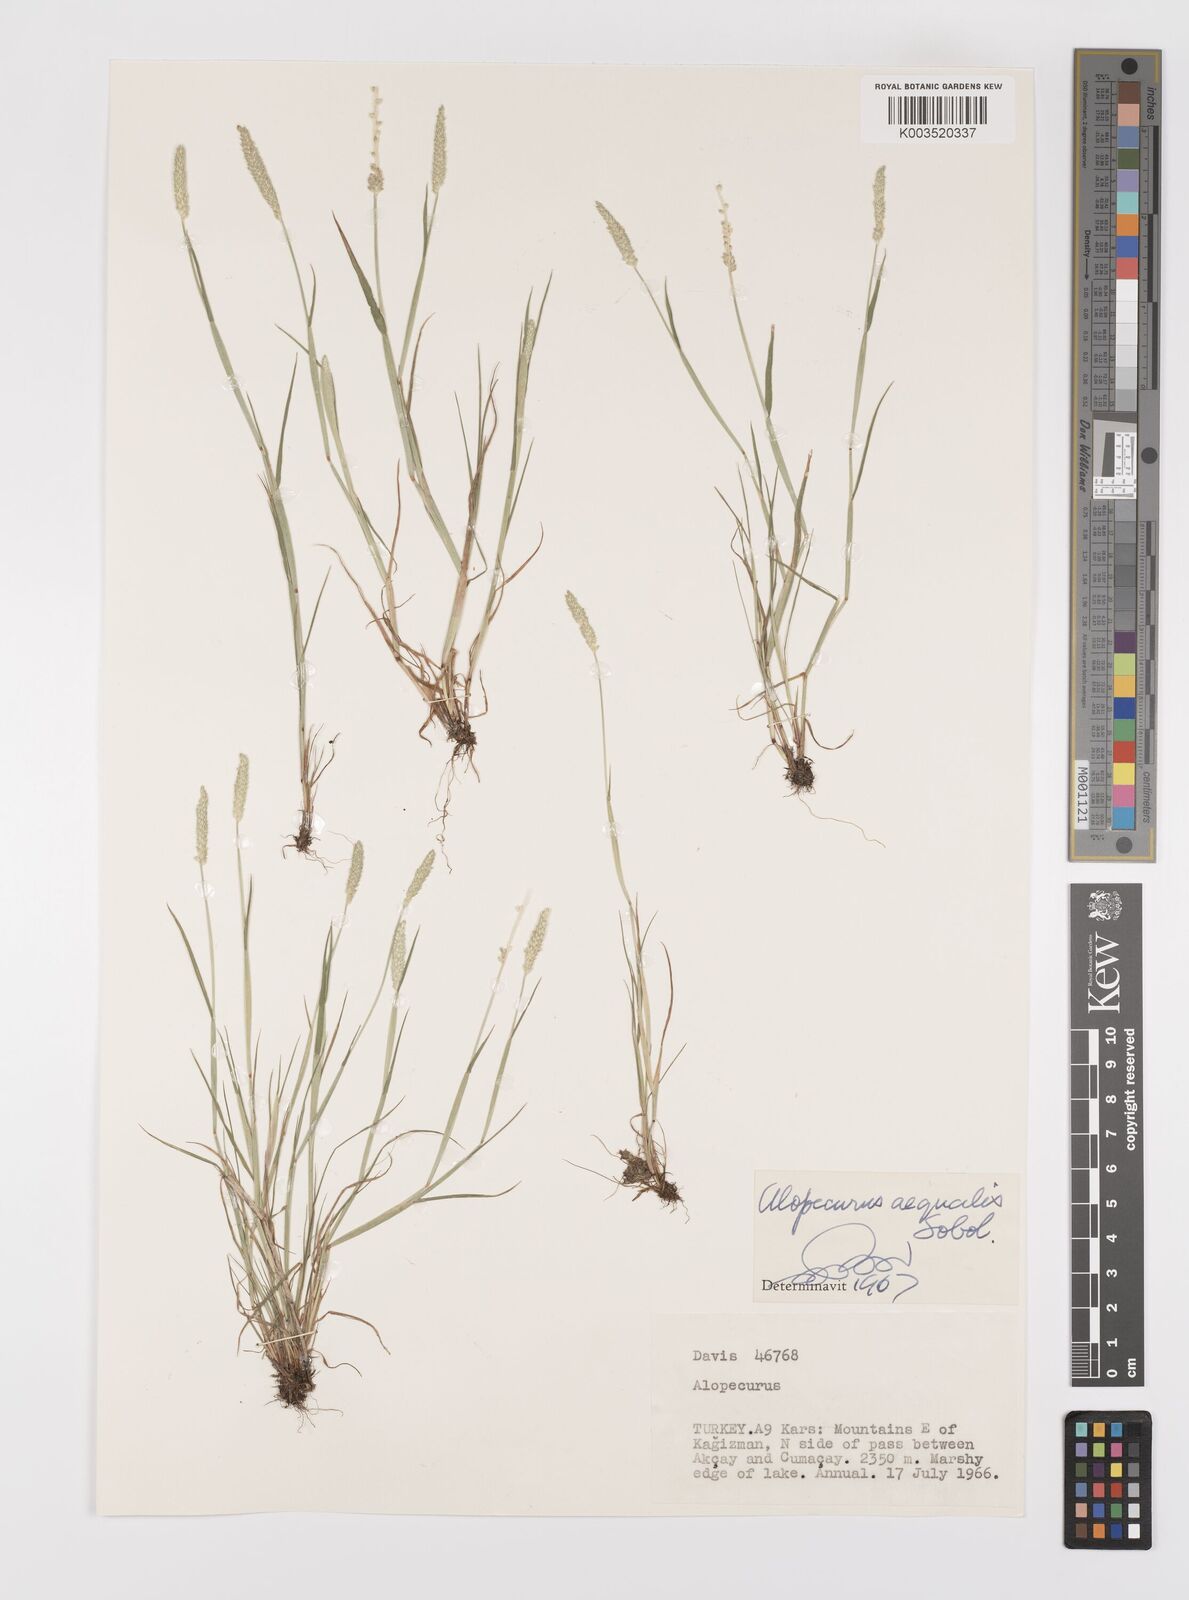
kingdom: Plantae
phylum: Tracheophyta
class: Liliopsida
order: Poales
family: Poaceae
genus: Alopecurus
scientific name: Alopecurus aequalis
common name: Orange foxtail
